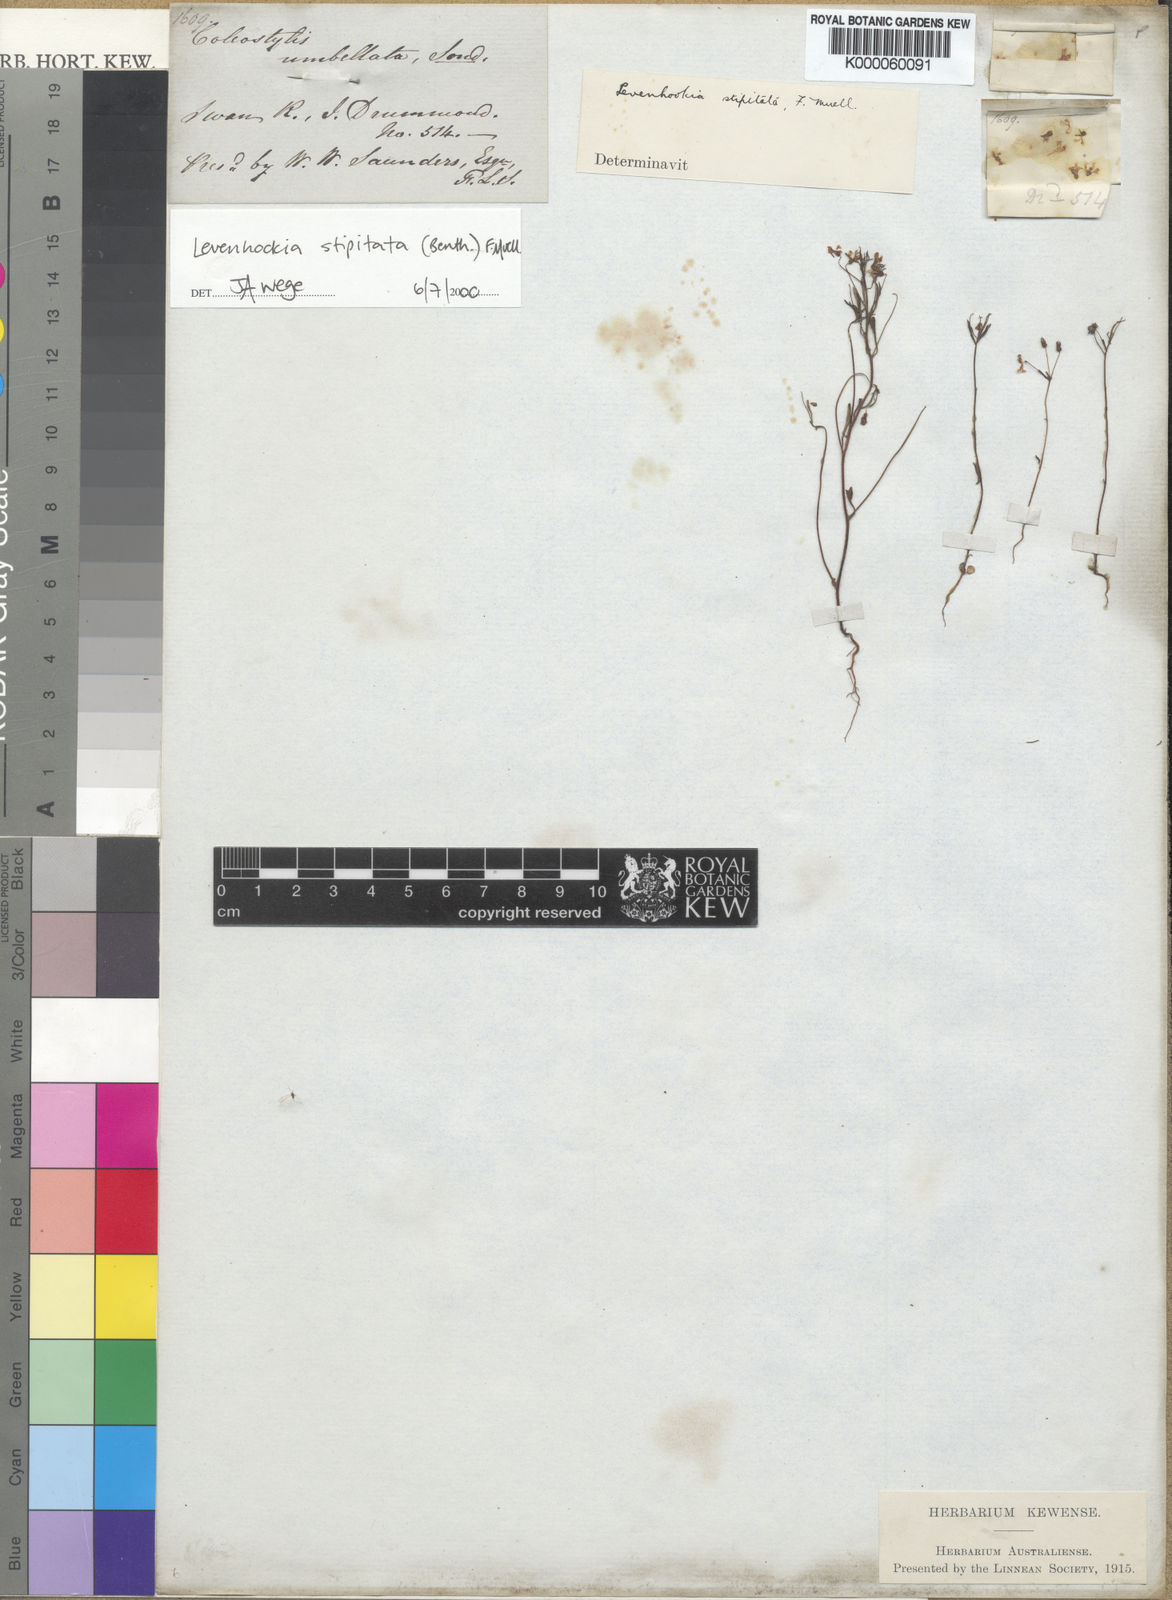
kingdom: Plantae
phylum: Tracheophyta
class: Magnoliopsida
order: Asterales
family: Stylidiaceae
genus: Levenhookia
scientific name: Levenhookia stipitata
